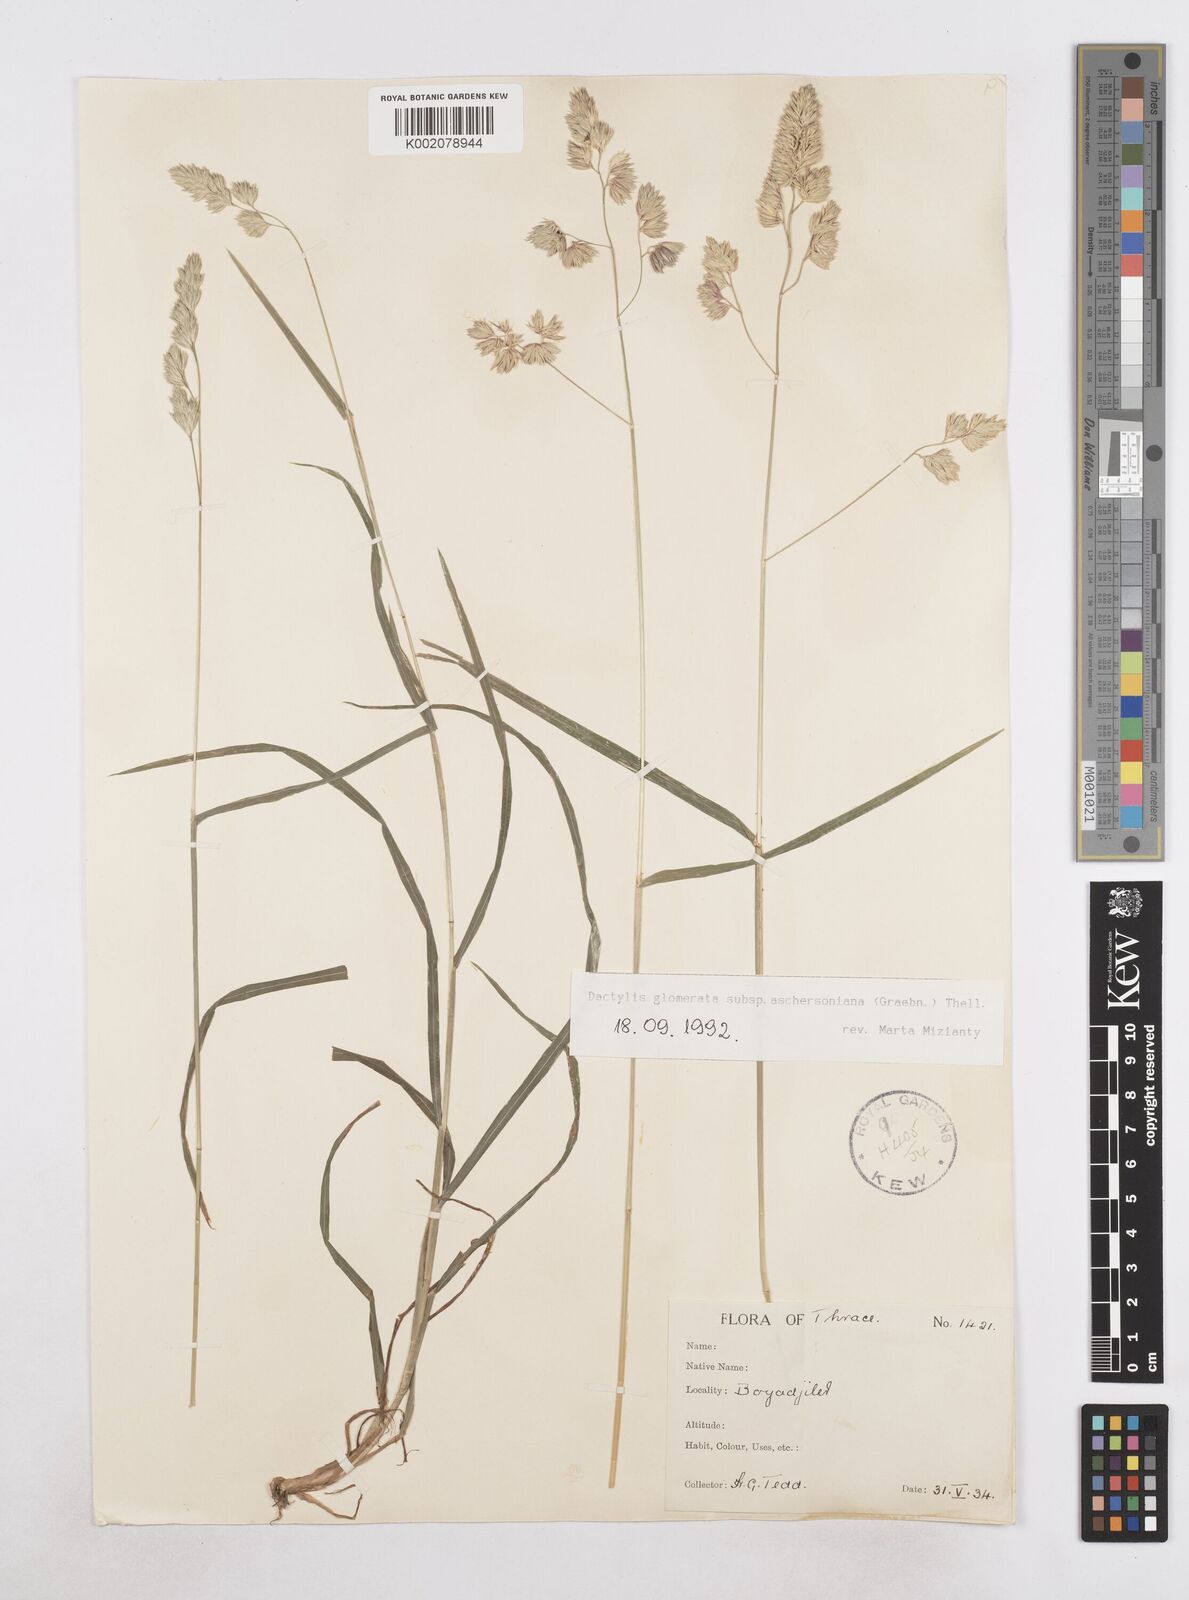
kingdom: Plantae
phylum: Tracheophyta
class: Liliopsida
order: Poales
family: Poaceae
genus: Dactylis
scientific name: Dactylis glomerata
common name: Orchardgrass
